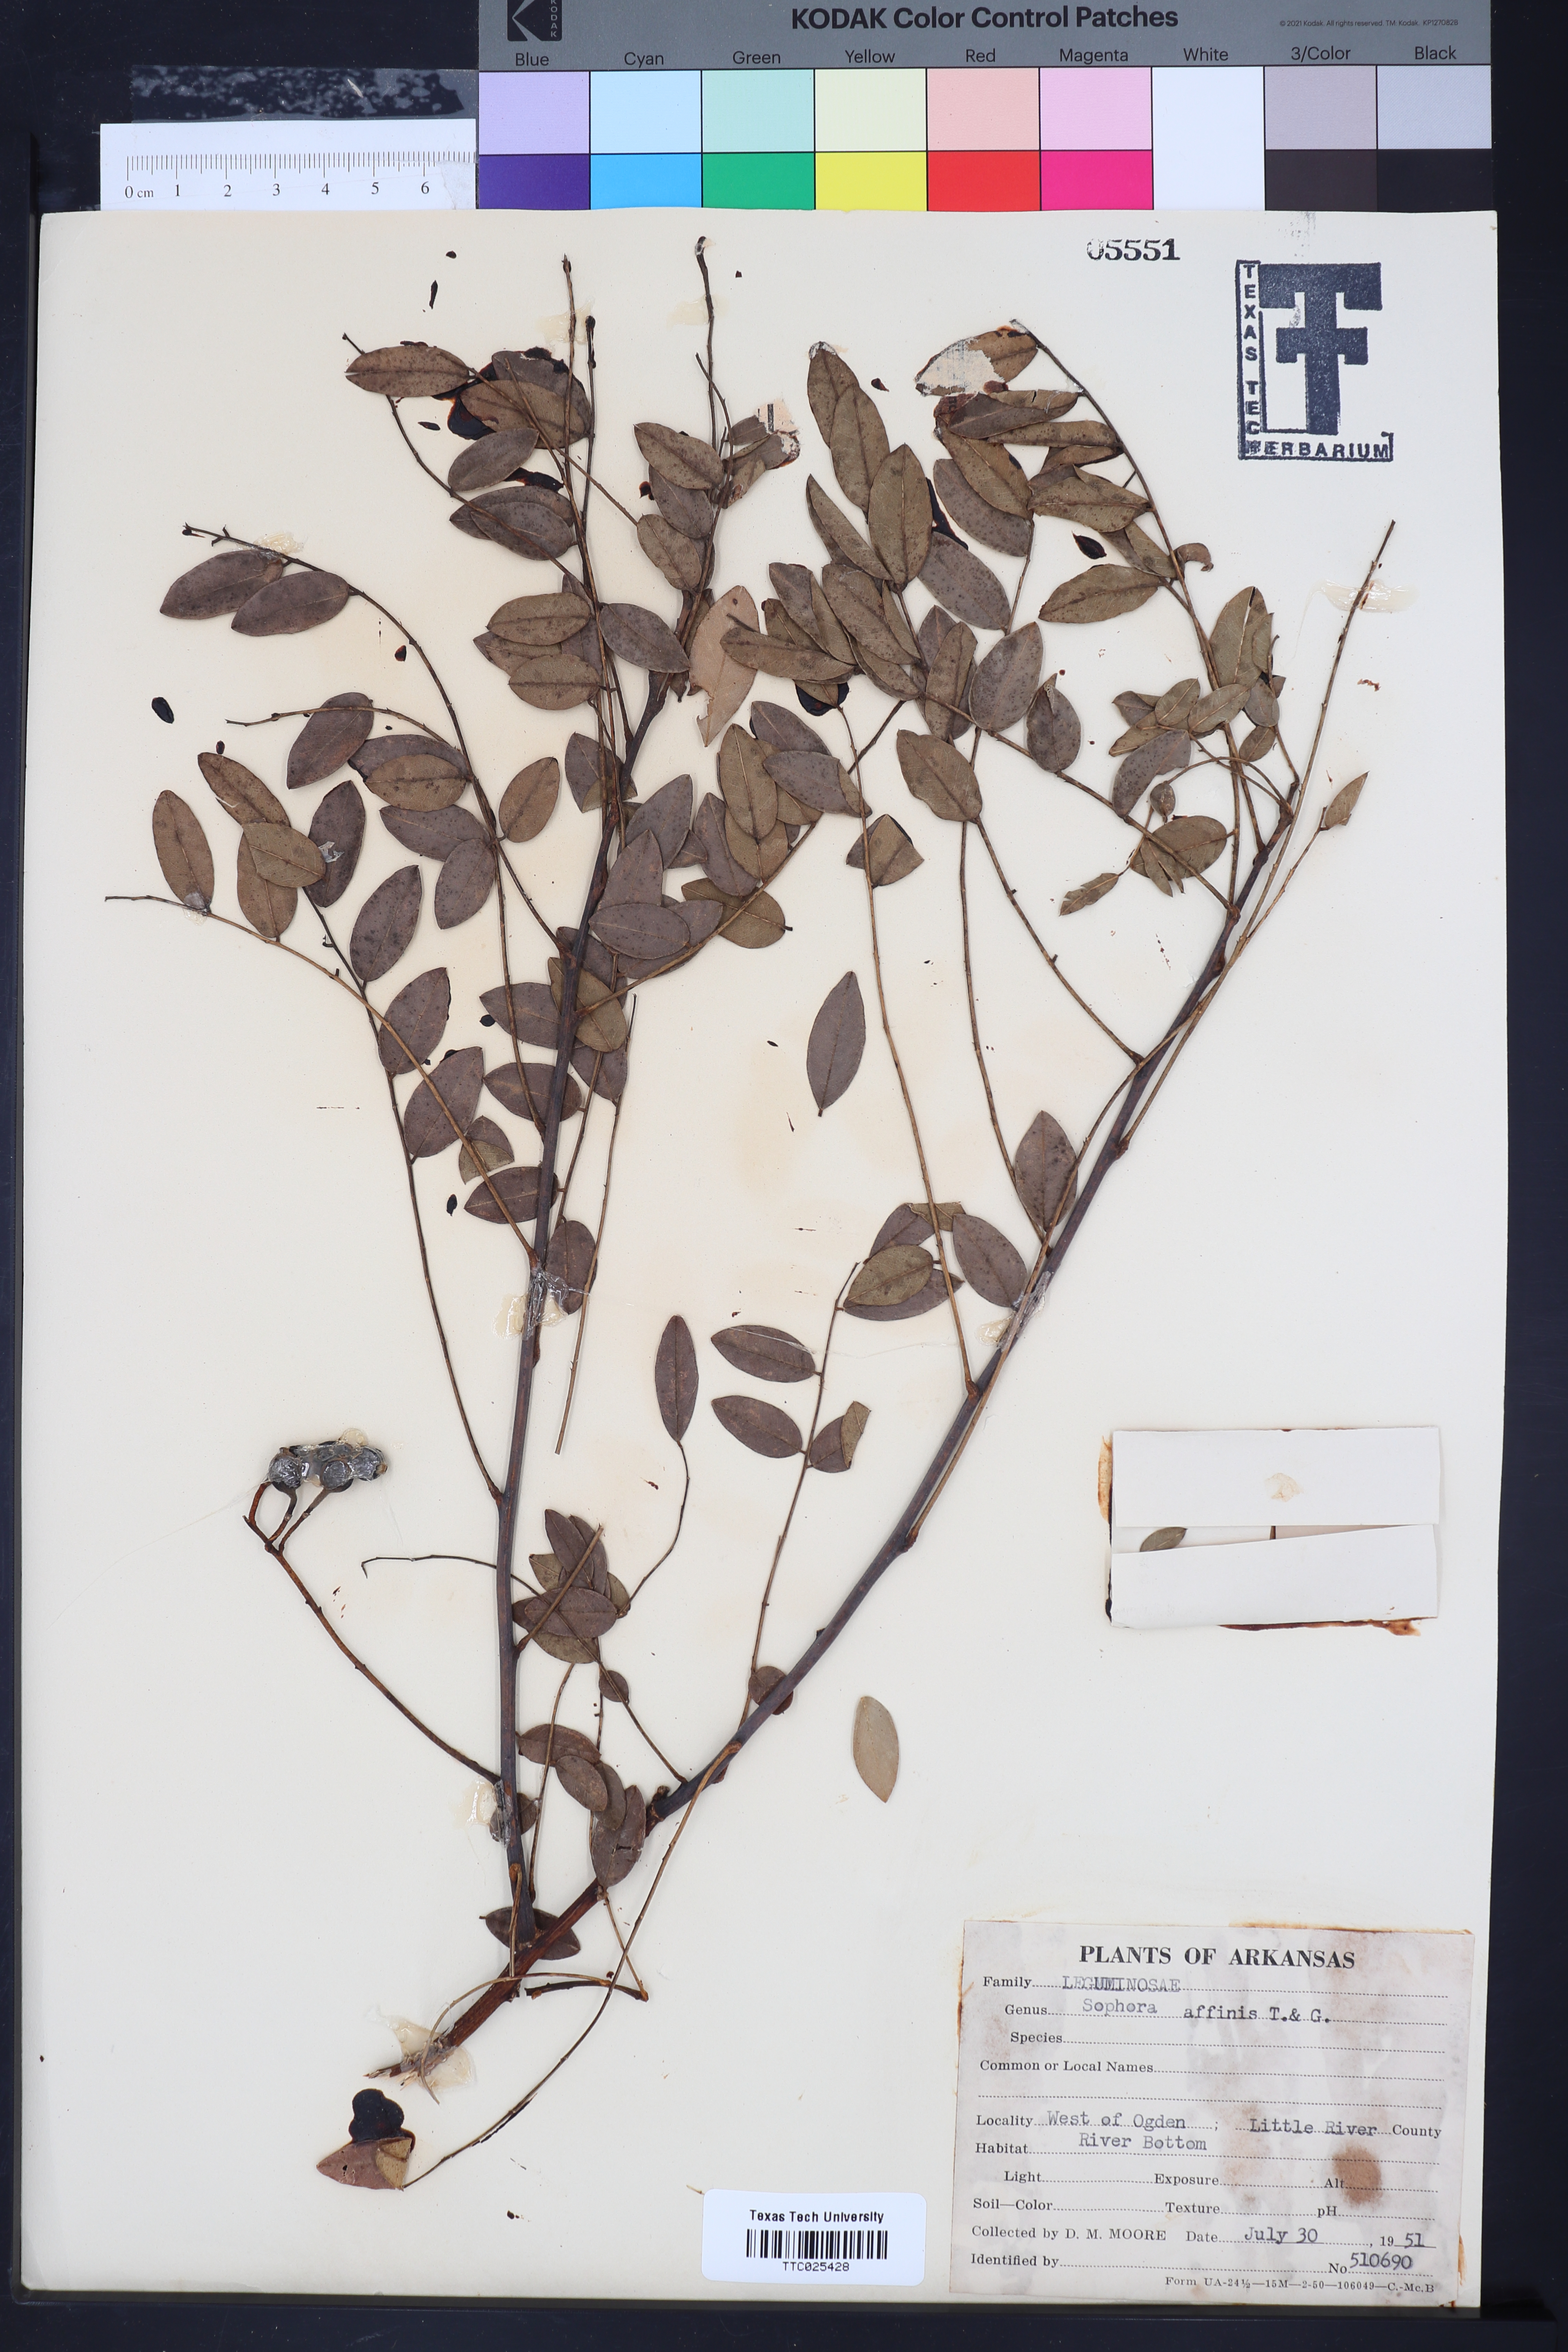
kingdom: Plantae
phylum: Tracheophyta
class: Magnoliopsida
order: Fabales
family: Fabaceae
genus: Styphnolobium
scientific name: Styphnolobium affine
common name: Texas sophora
